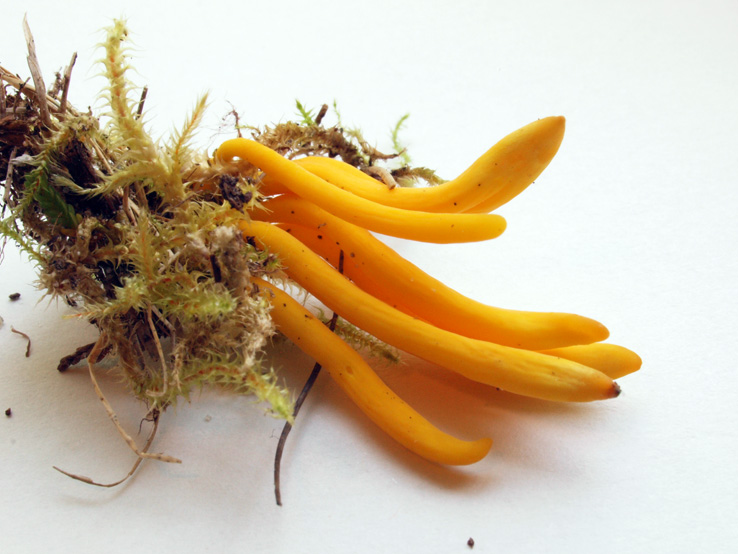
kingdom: Fungi
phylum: Basidiomycota
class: Agaricomycetes
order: Agaricales
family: Clavariaceae
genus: Clavulinopsis
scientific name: Clavulinopsis helvola
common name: orangegul køllesvamp
